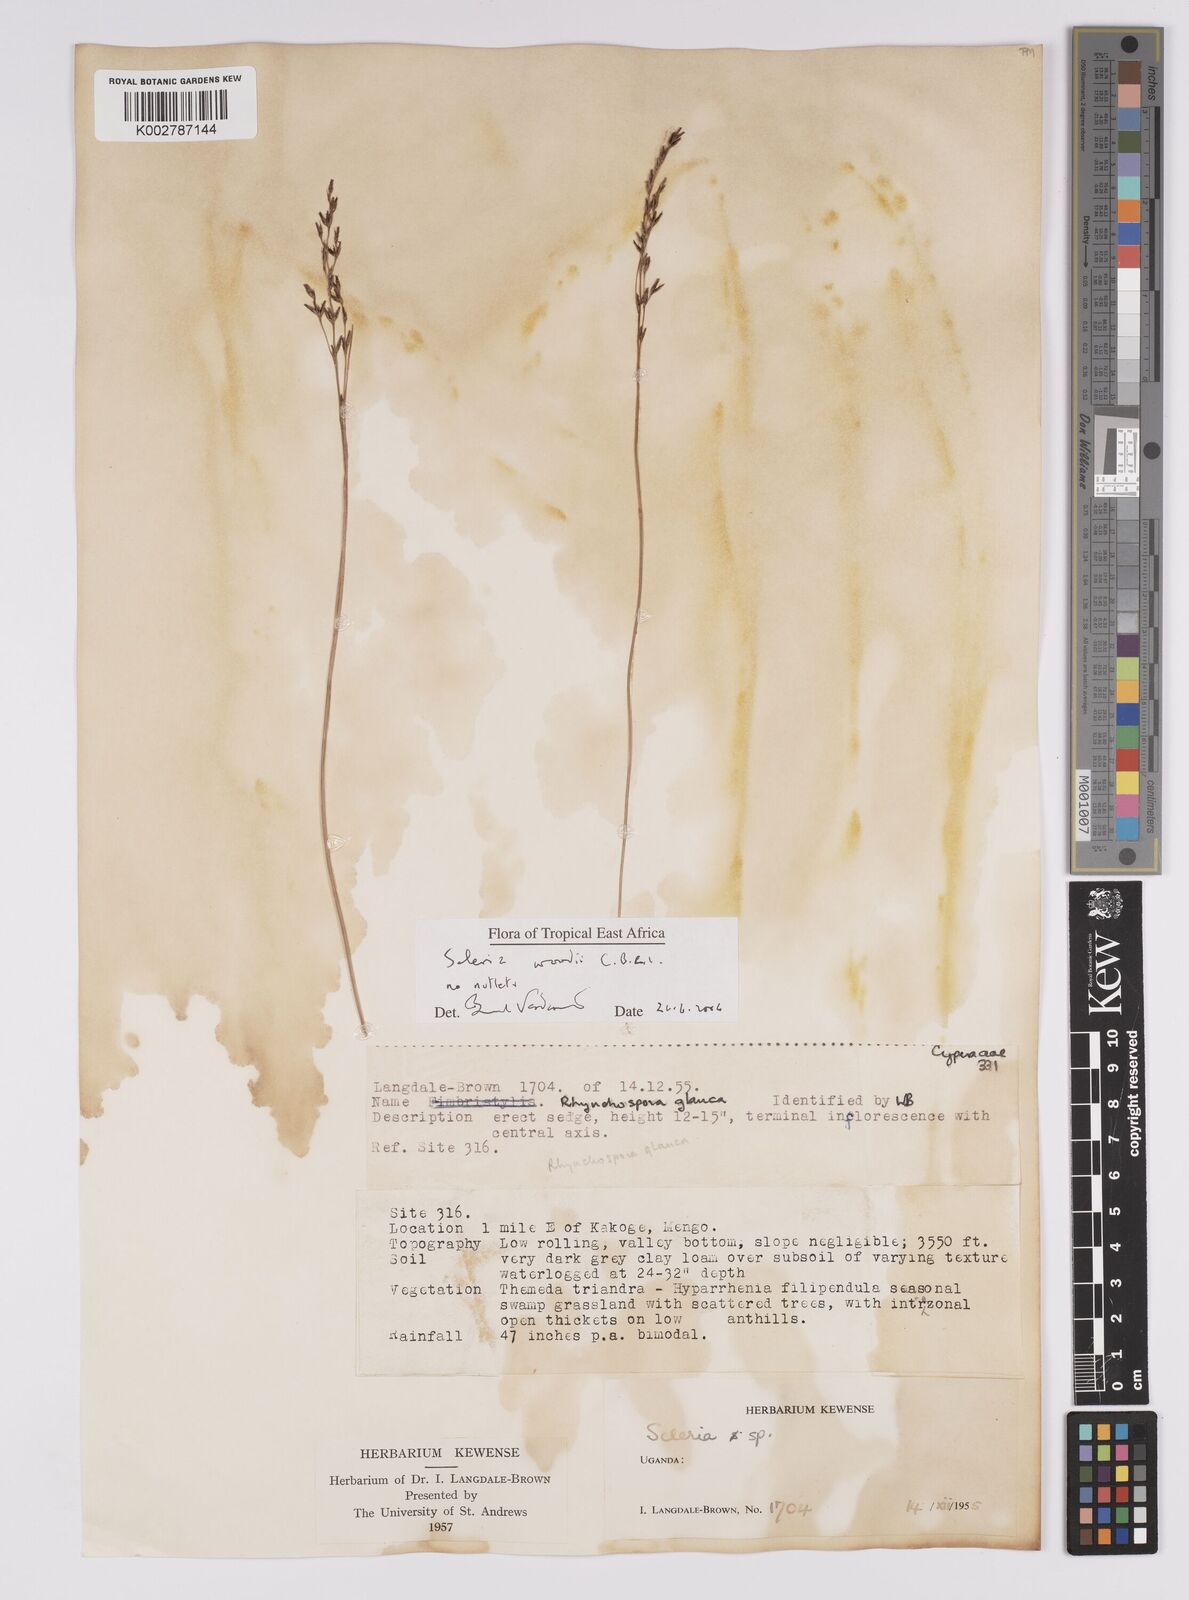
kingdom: Plantae
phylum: Tracheophyta
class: Liliopsida
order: Poales
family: Cyperaceae
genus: Scleria
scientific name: Scleria woodii
